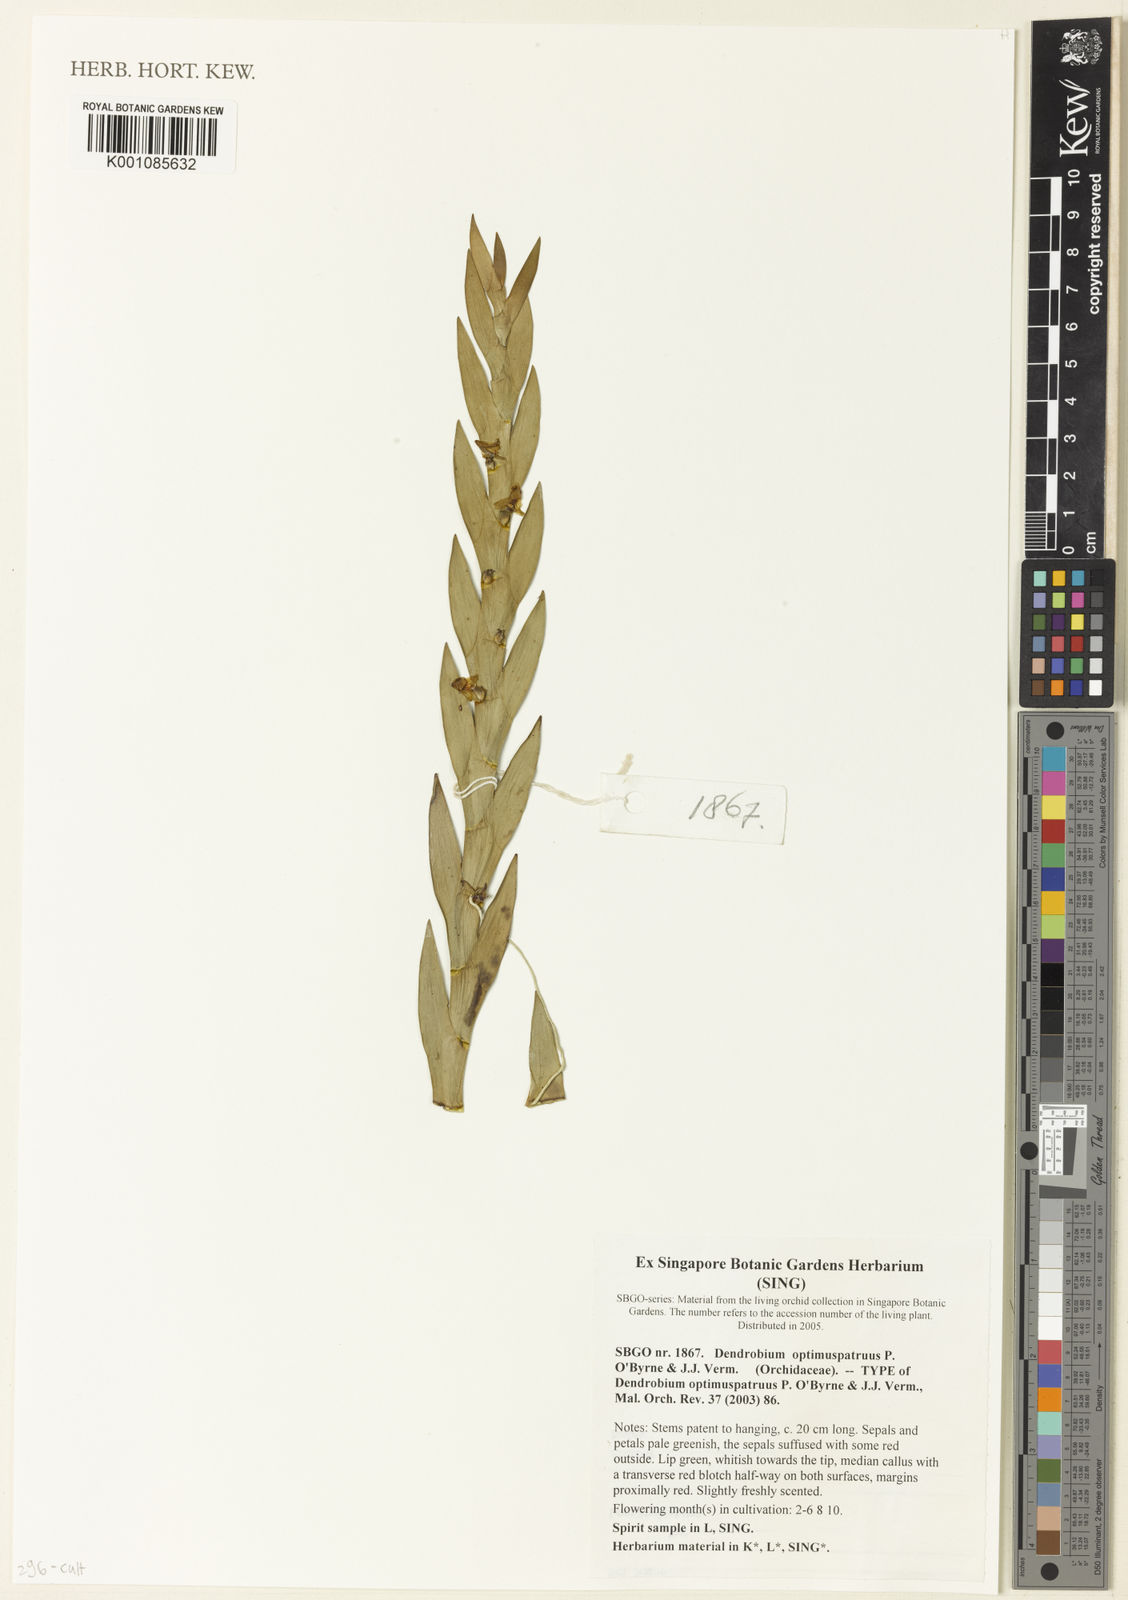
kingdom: Plantae
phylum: Tracheophyta
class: Liliopsida
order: Asparagales
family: Orchidaceae
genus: Dendrobium
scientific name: Dendrobium optimuspatruus
